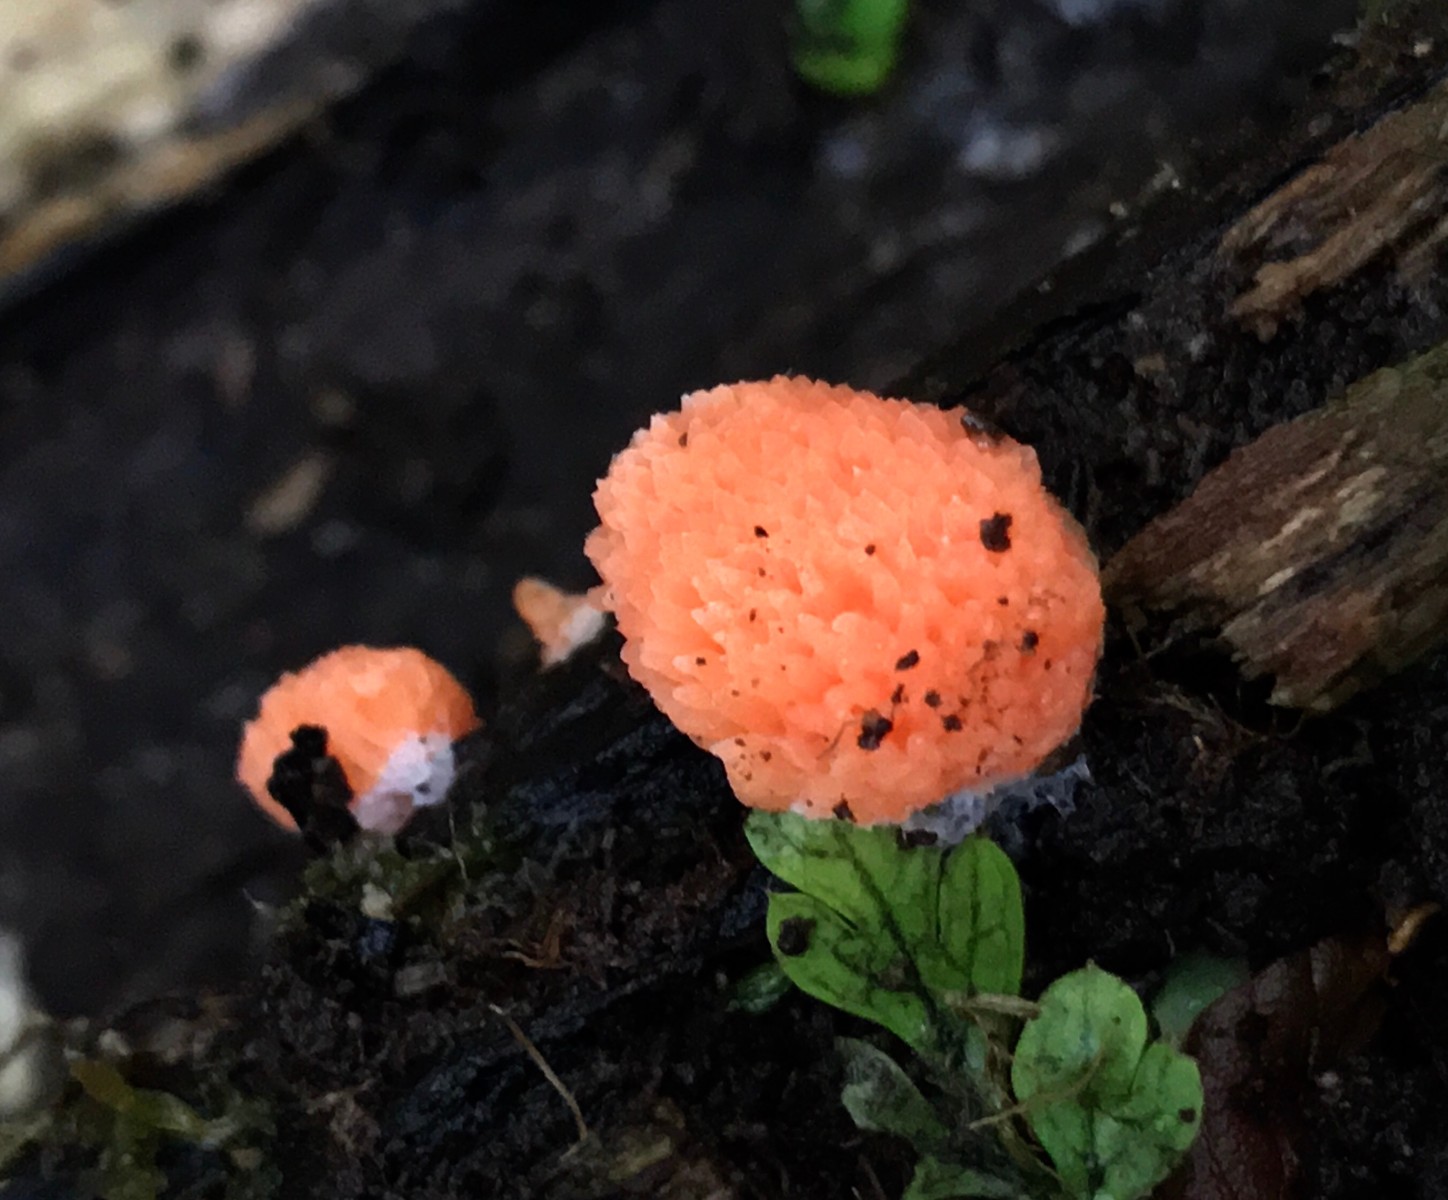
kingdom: Protozoa
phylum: Mycetozoa
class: Myxomycetes
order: Cribrariales
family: Tubiferaceae
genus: Tubifera
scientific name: Tubifera ferruginosa
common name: kanel-støvrør
